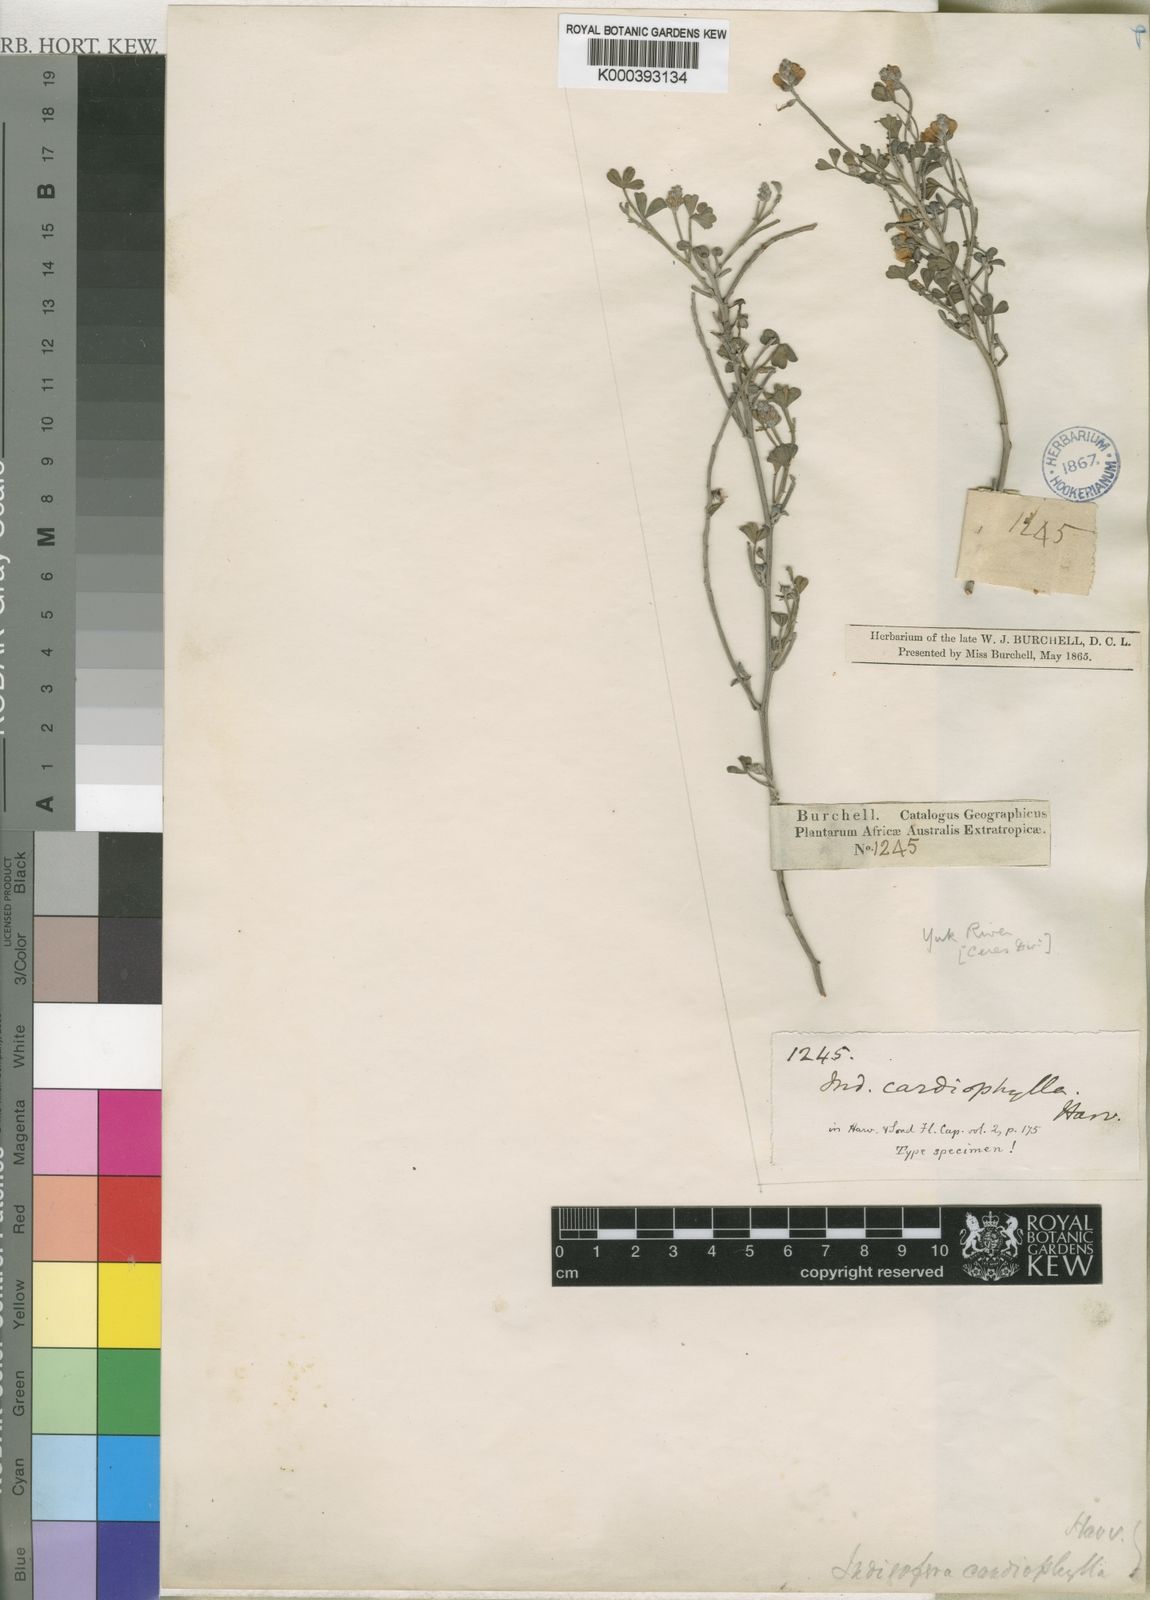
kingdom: Plantae
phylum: Tracheophyta
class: Magnoliopsida
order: Fabales
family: Fabaceae
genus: Indigofera
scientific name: Indigofera meyeriana
